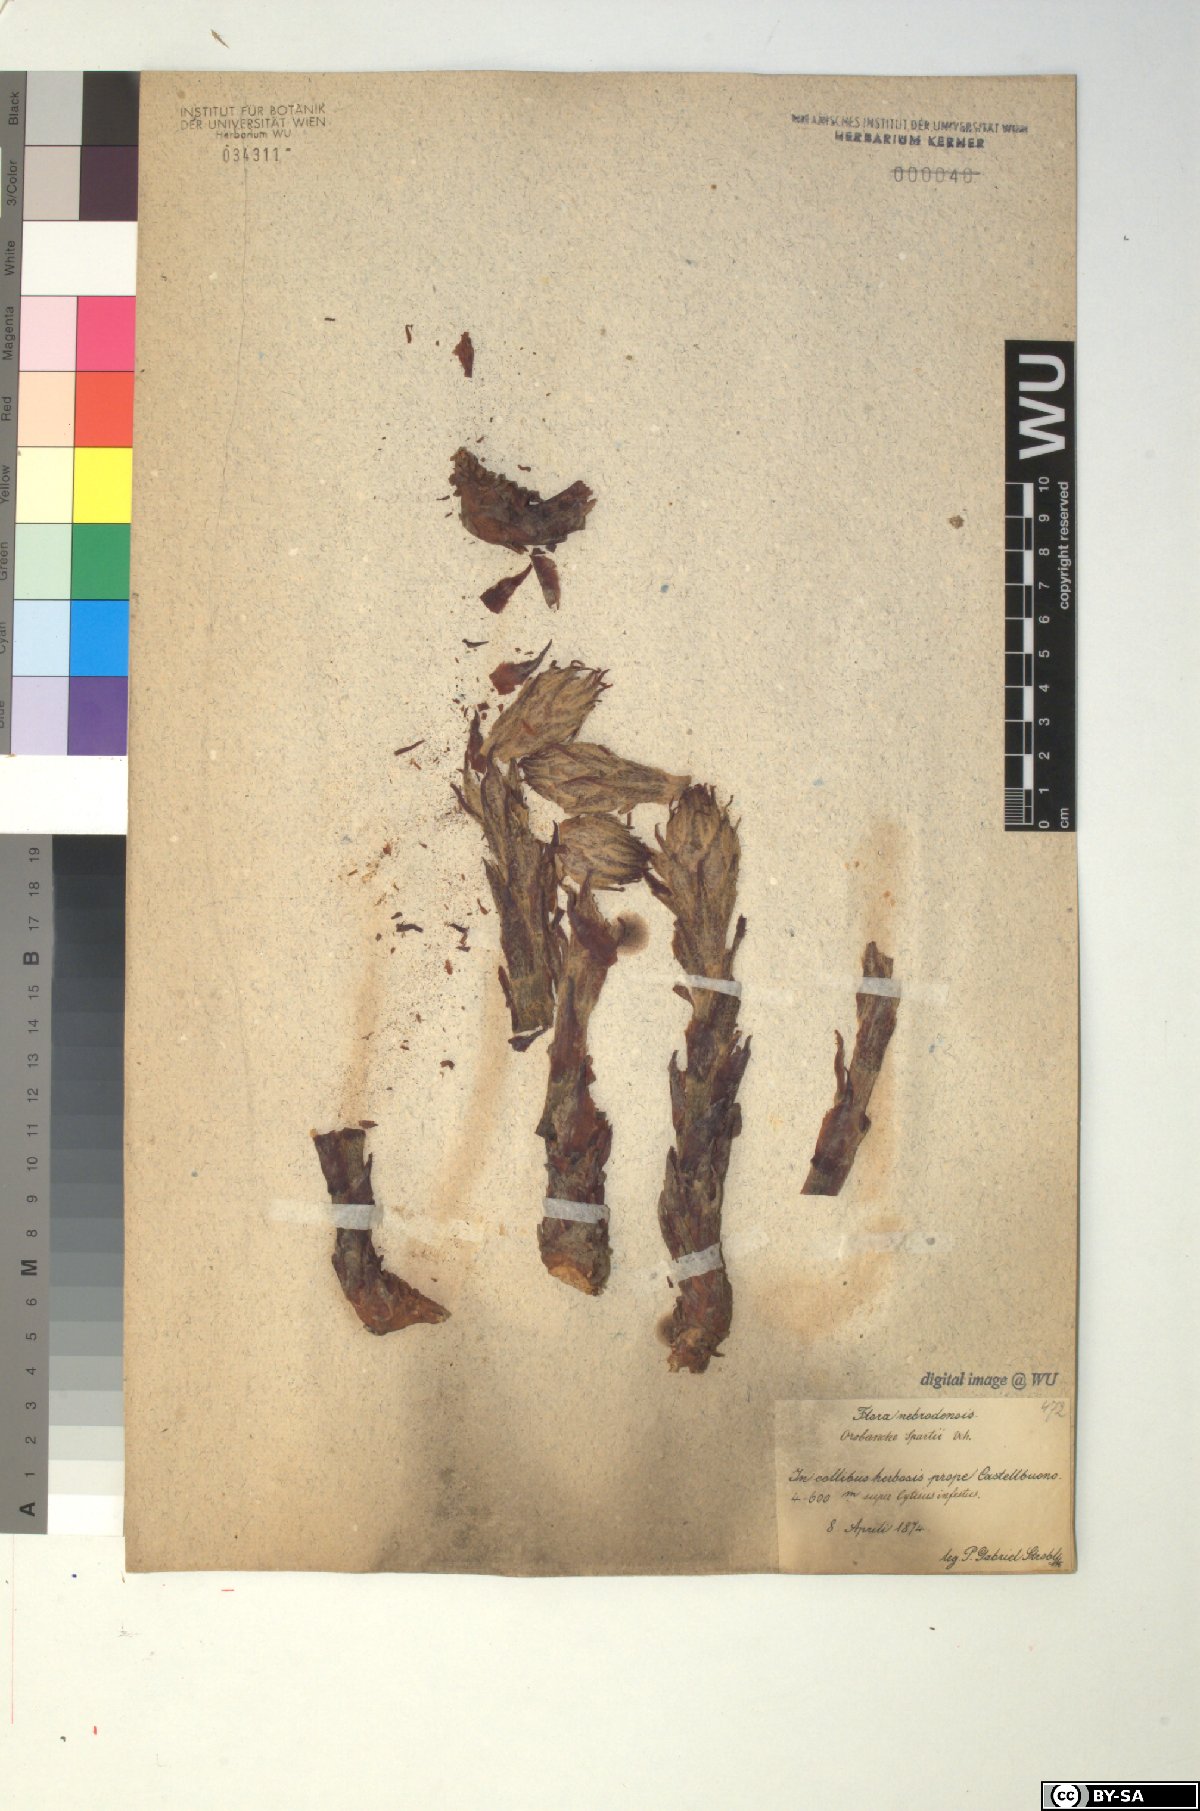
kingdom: Plantae
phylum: Tracheophyta
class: Magnoliopsida
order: Lamiales
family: Orobanchaceae
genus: Orobanche
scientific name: Orobanche variegata
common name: Variegated broomrape
